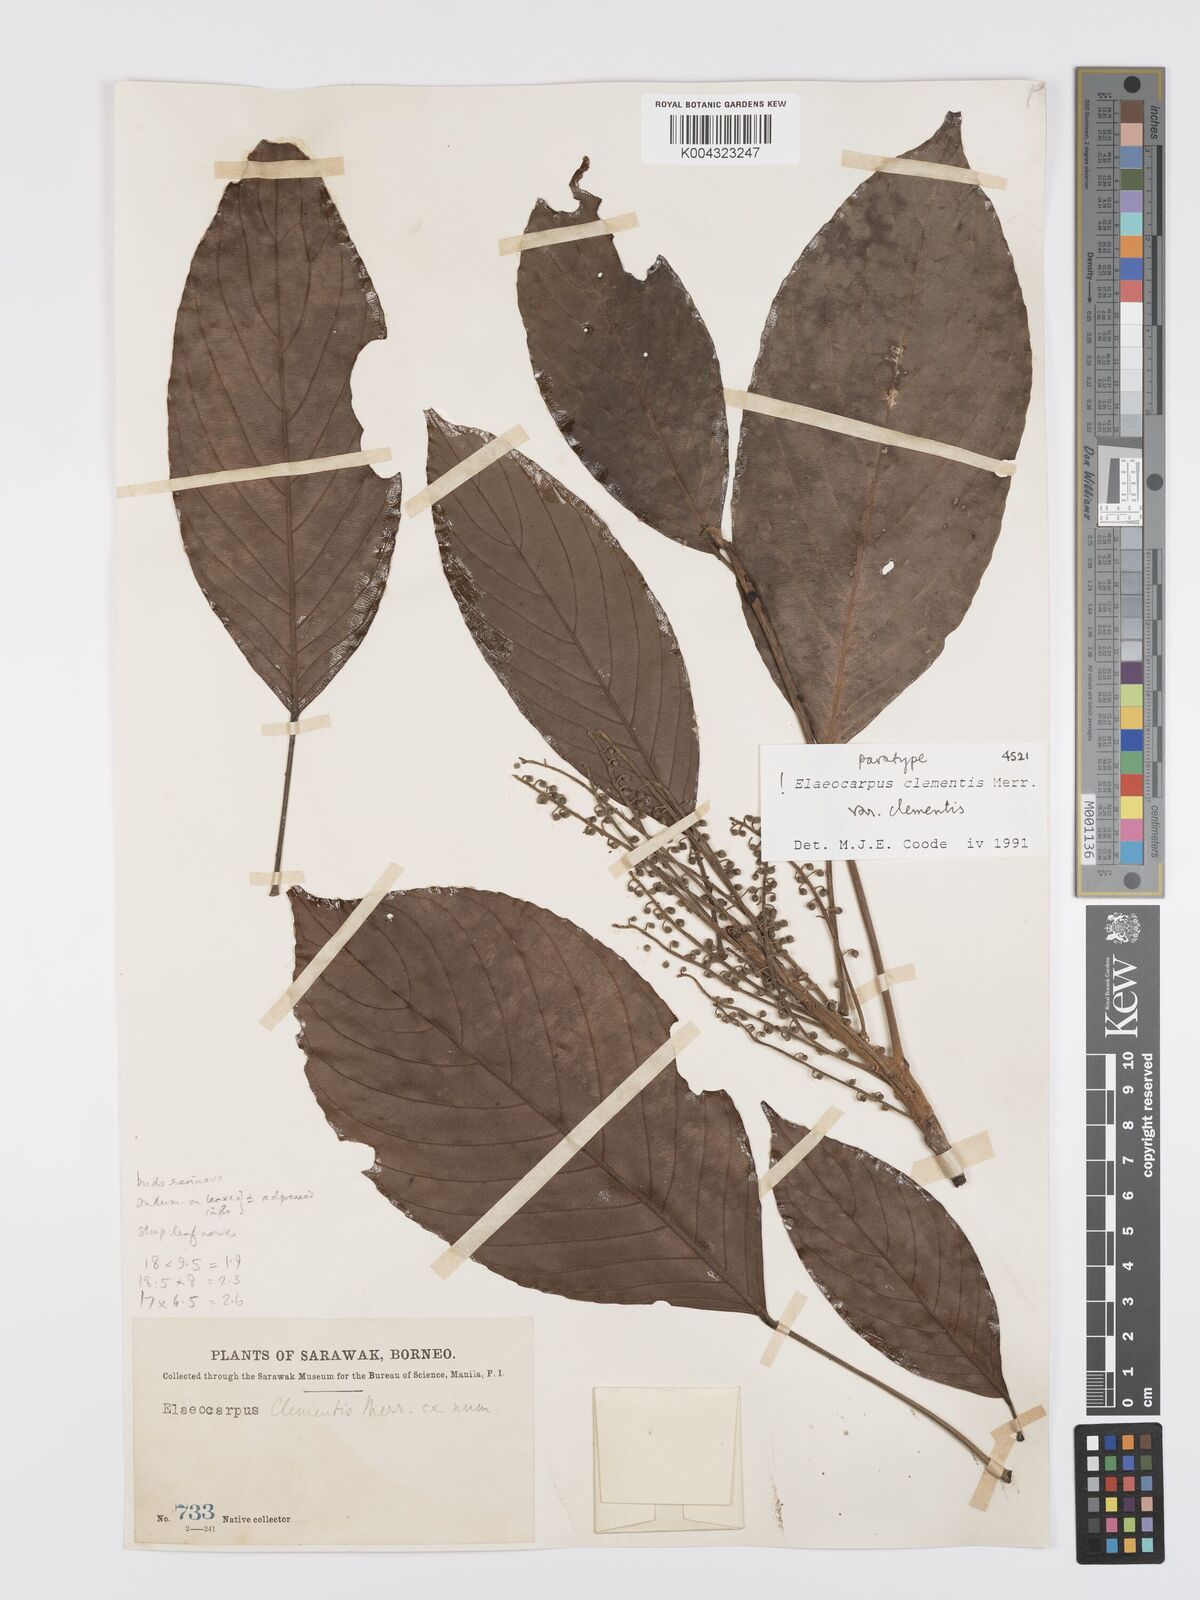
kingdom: Plantae
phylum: Tracheophyta
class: Magnoliopsida
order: Oxalidales
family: Elaeocarpaceae
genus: Elaeocarpus
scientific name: Elaeocarpus clementis
